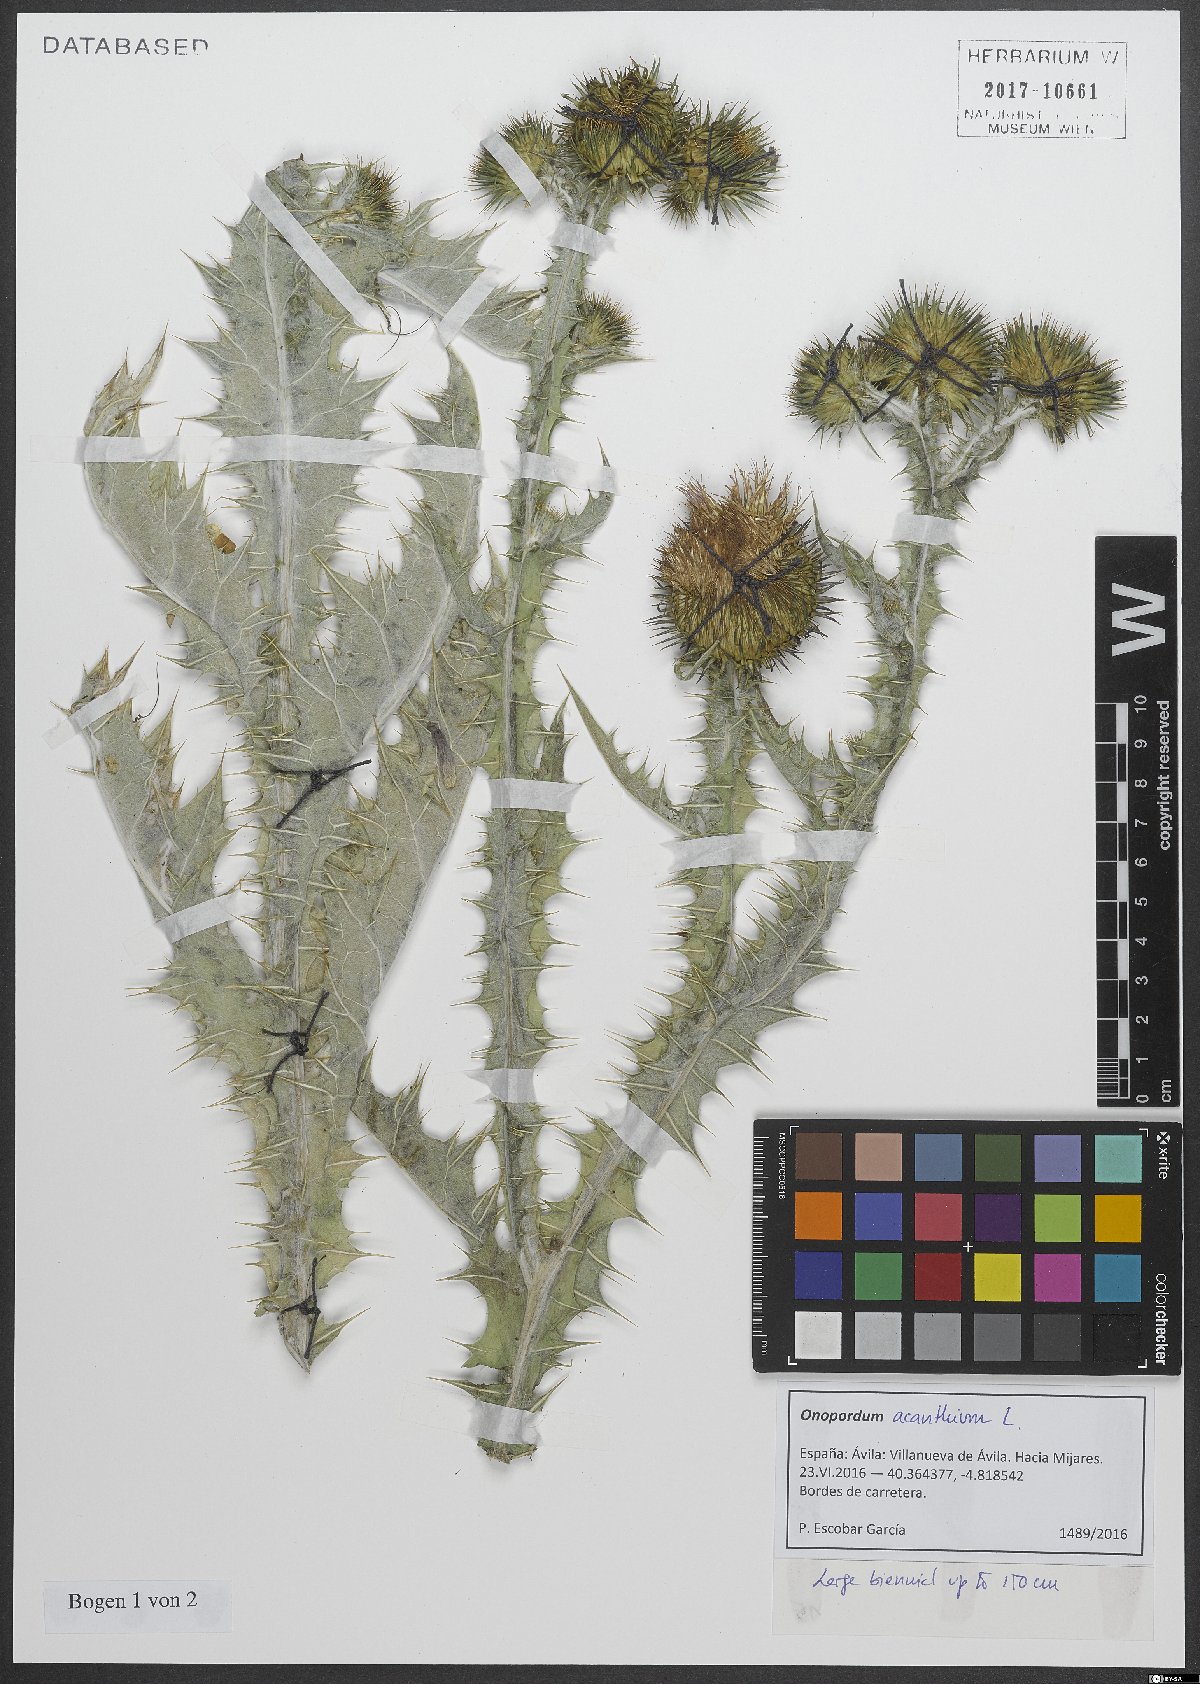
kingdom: Plantae
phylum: Tracheophyta
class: Magnoliopsida
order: Asterales
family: Asteraceae
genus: Onopordum
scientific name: Onopordum acanthium
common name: Scotch thistle
